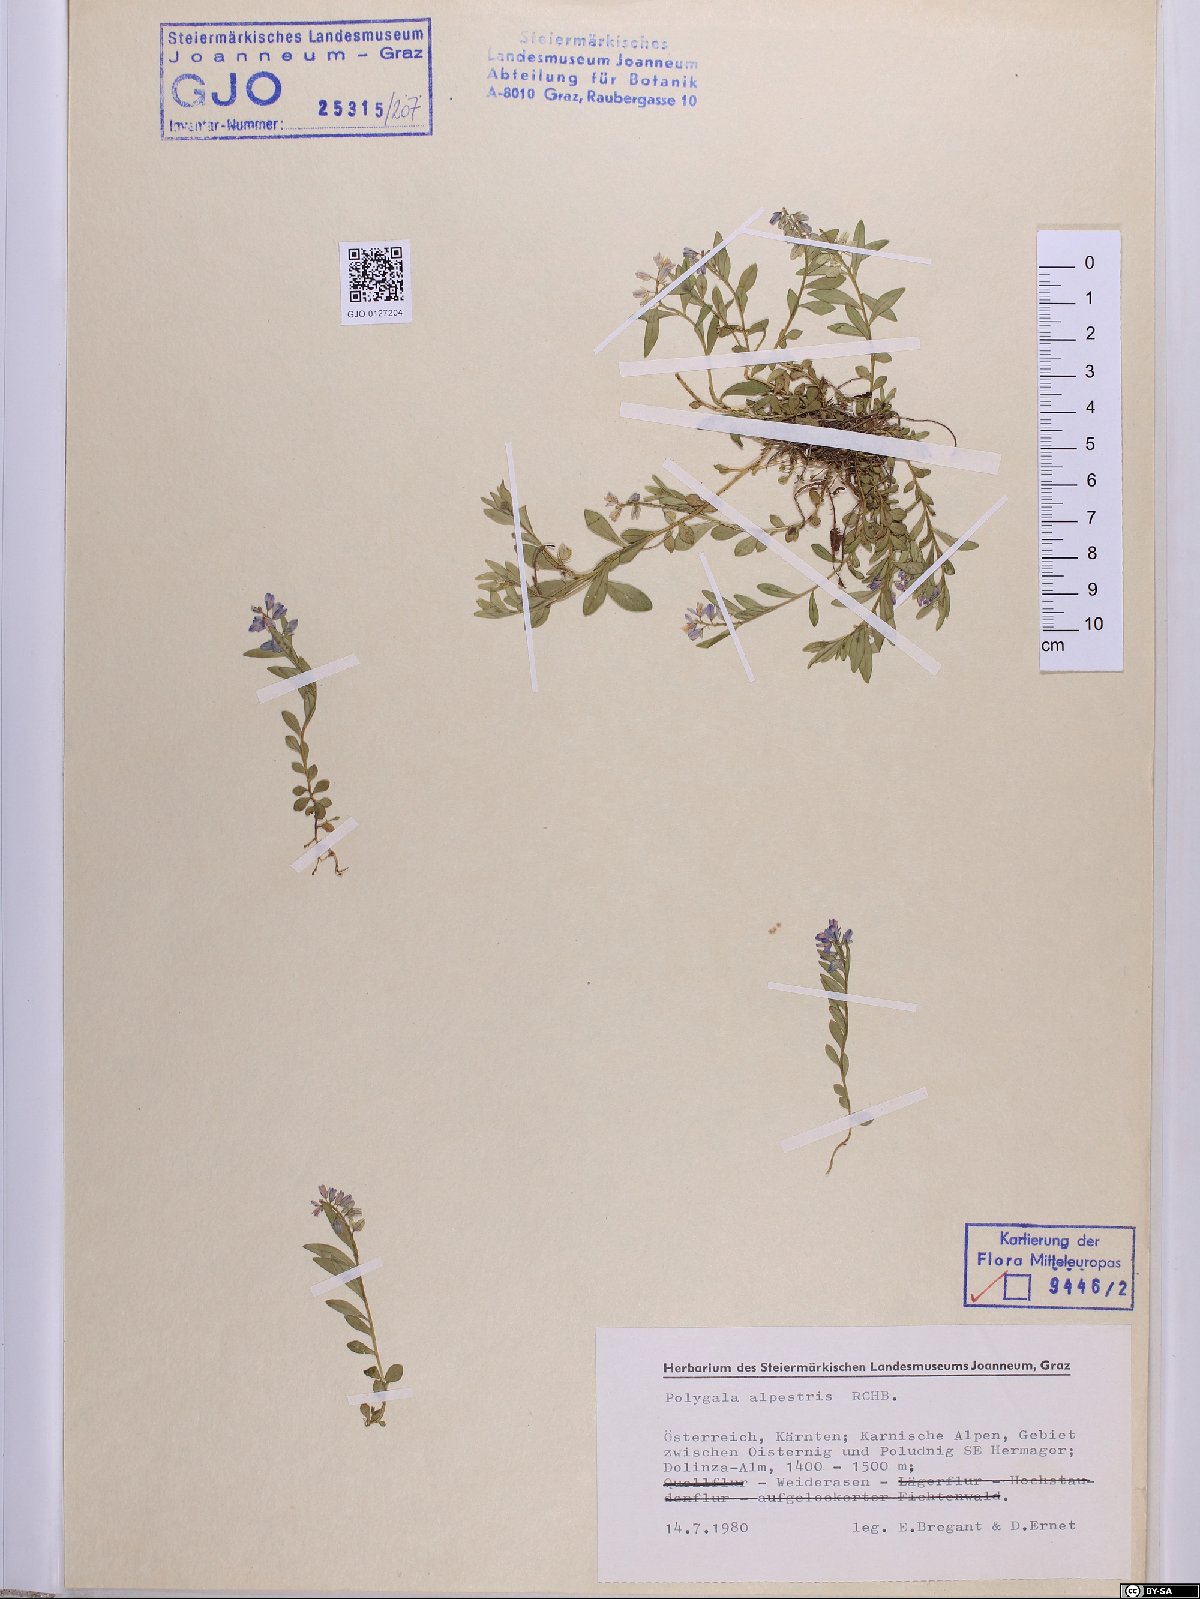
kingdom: Plantae
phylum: Tracheophyta
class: Magnoliopsida
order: Fabales
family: Polygalaceae
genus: Polygala
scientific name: Polygala alpestris
